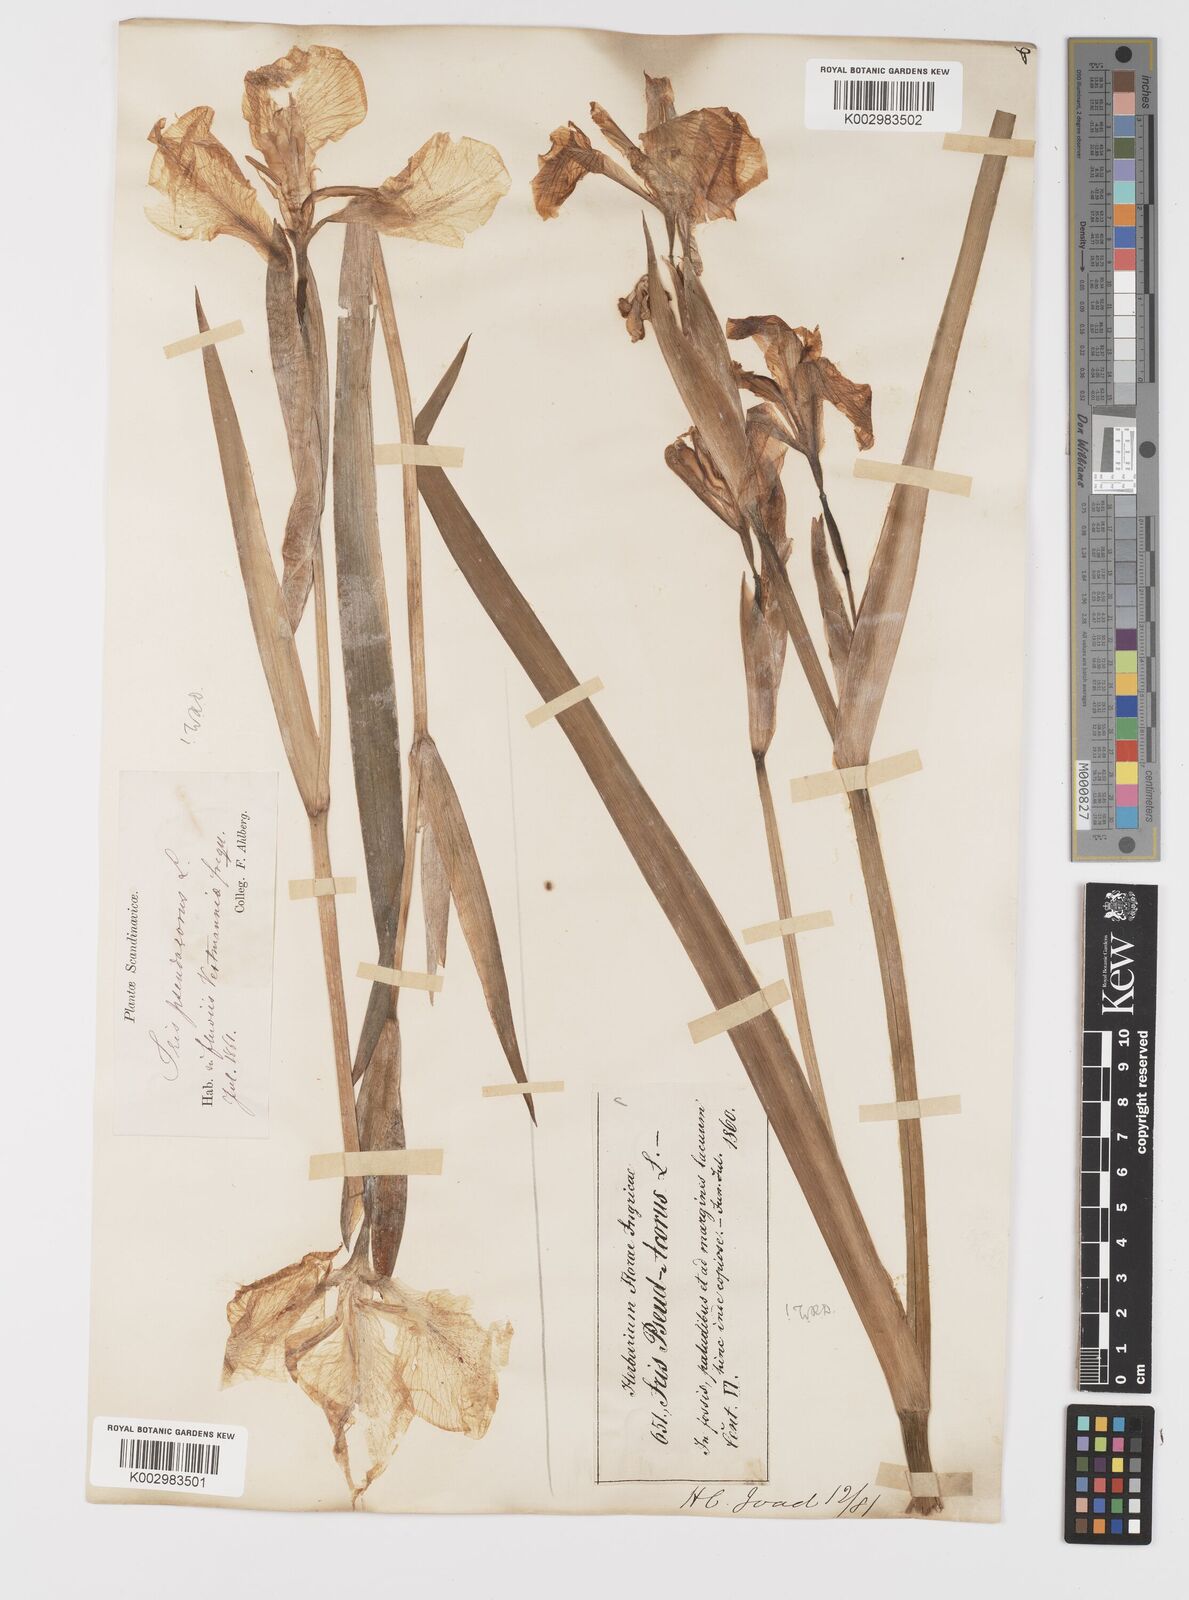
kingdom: Plantae
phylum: Tracheophyta
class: Liliopsida
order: Asparagales
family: Iridaceae
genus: Iris
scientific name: Iris pseudacorus
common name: Yellow flag
